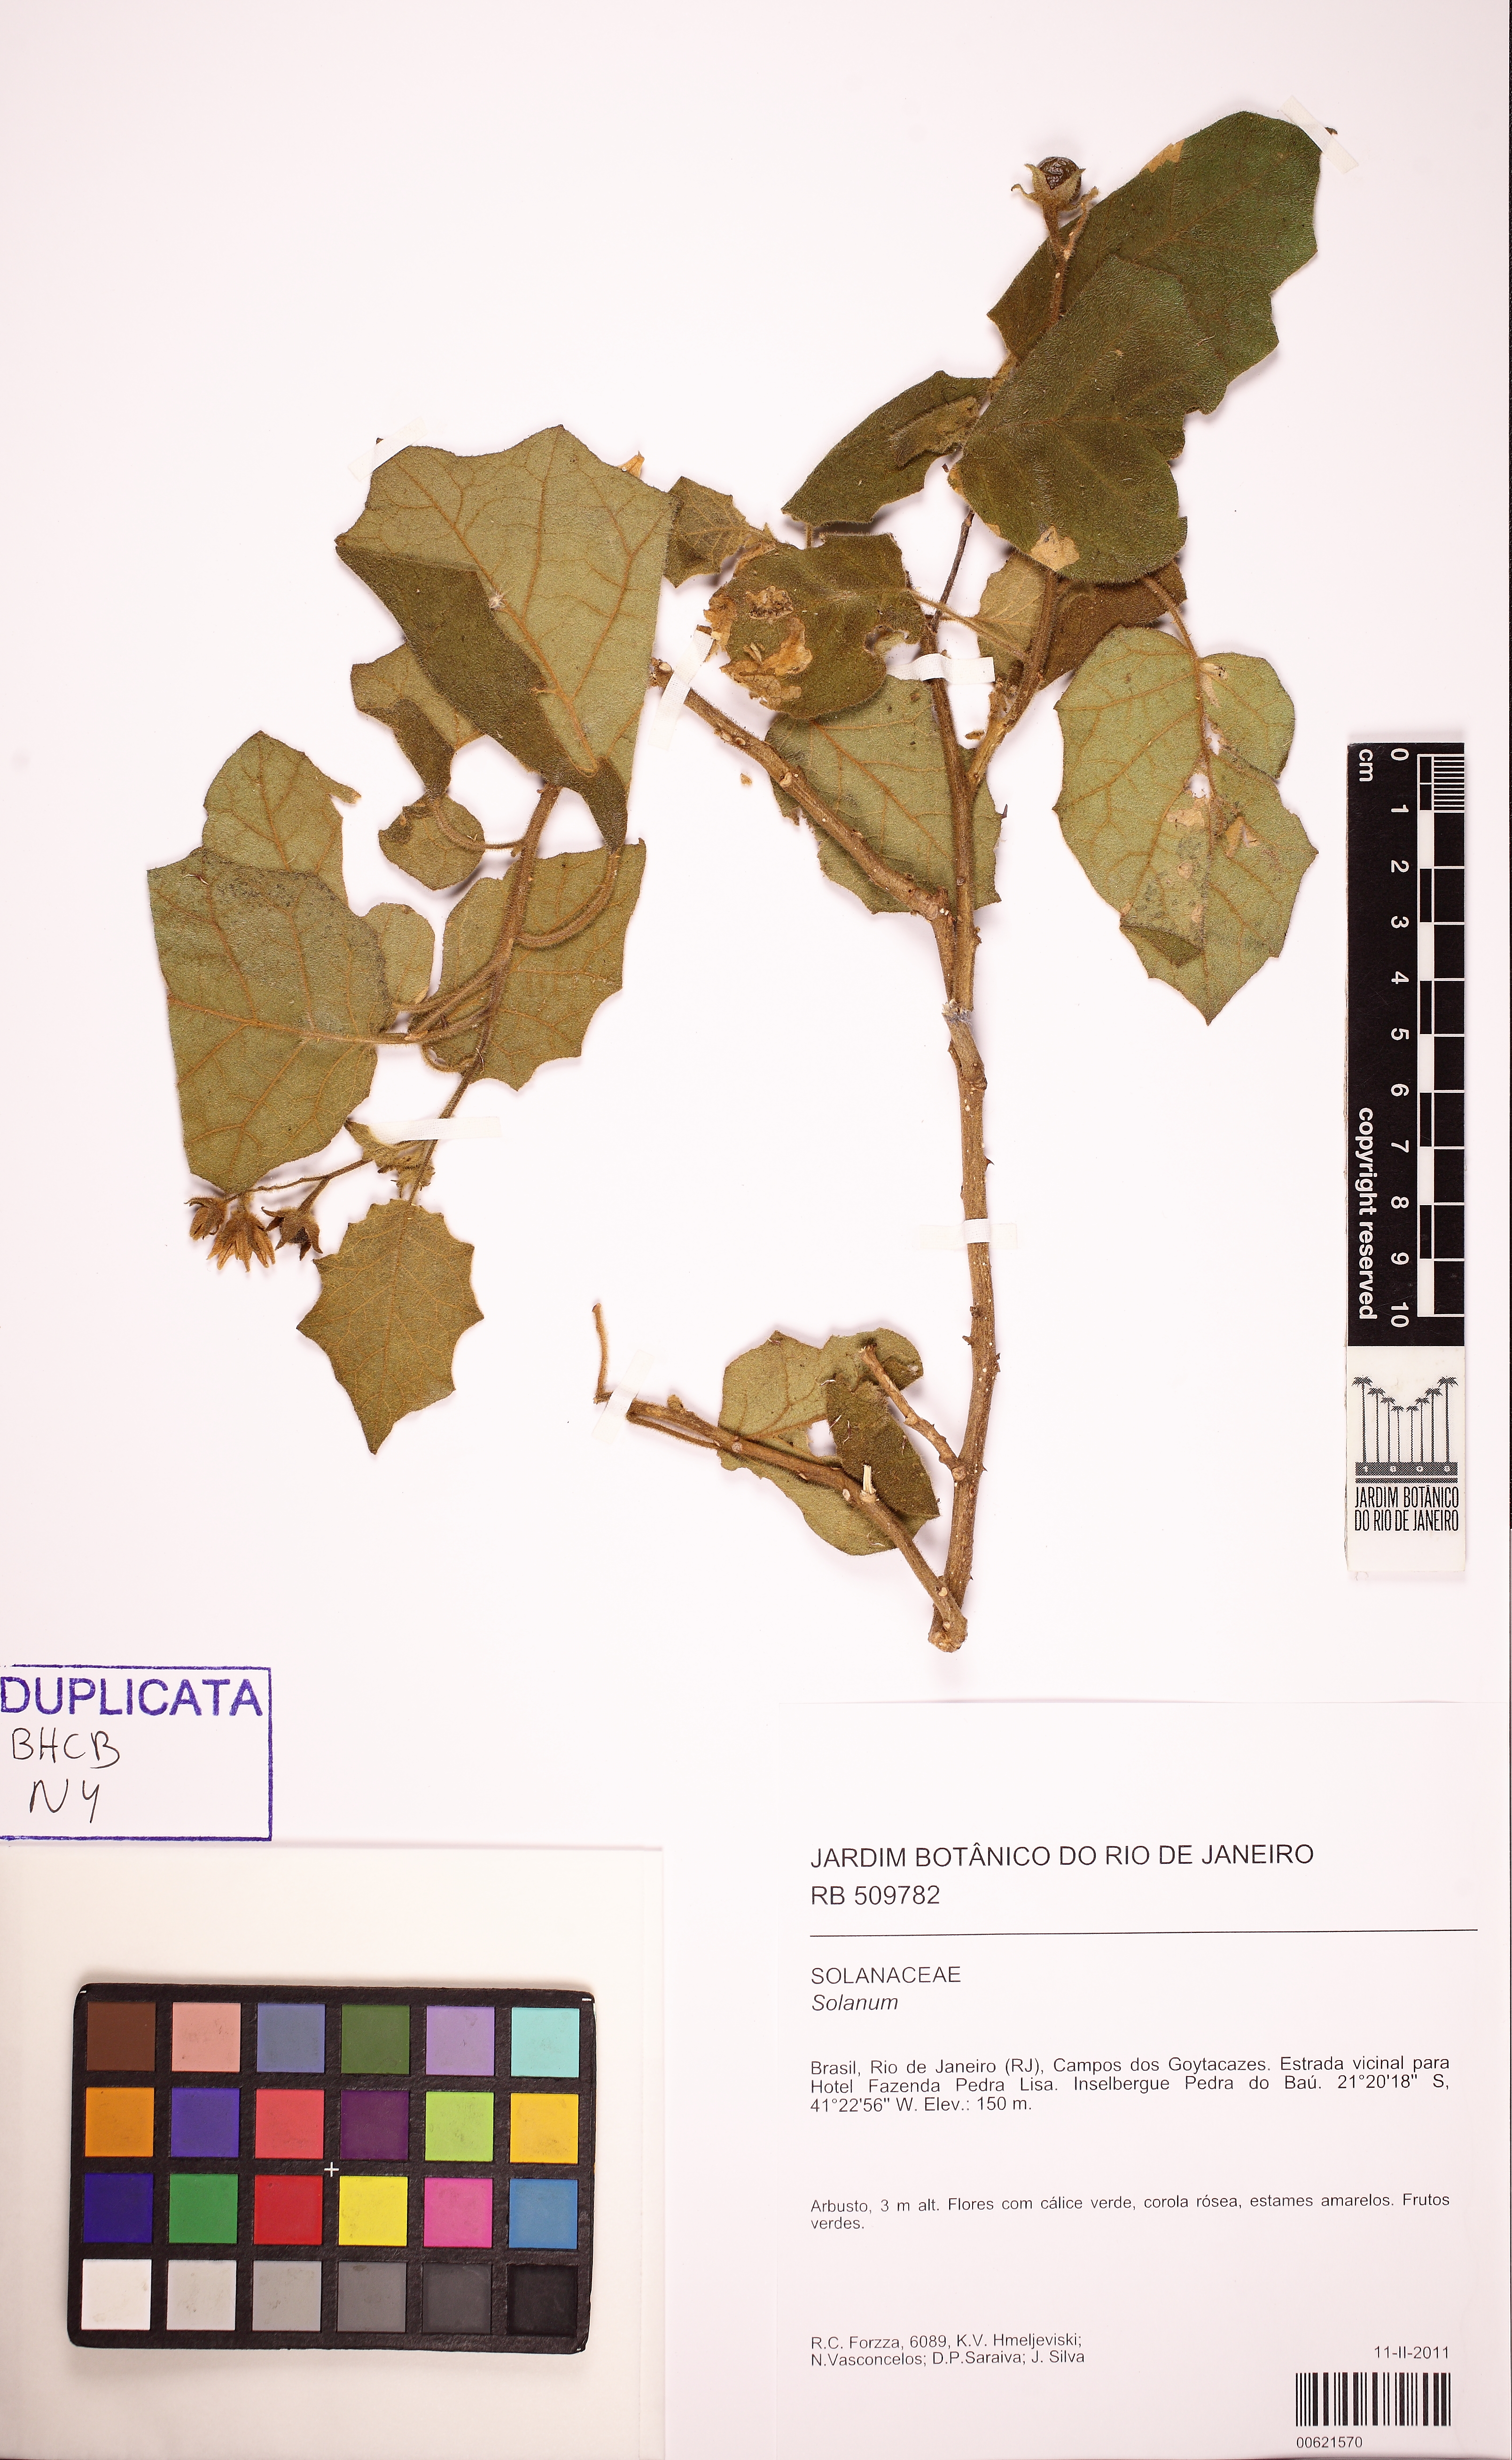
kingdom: Plantae
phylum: Tracheophyta
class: Magnoliopsida
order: Solanales
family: Solanaceae
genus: Solanum
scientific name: Solanum cordifolium
